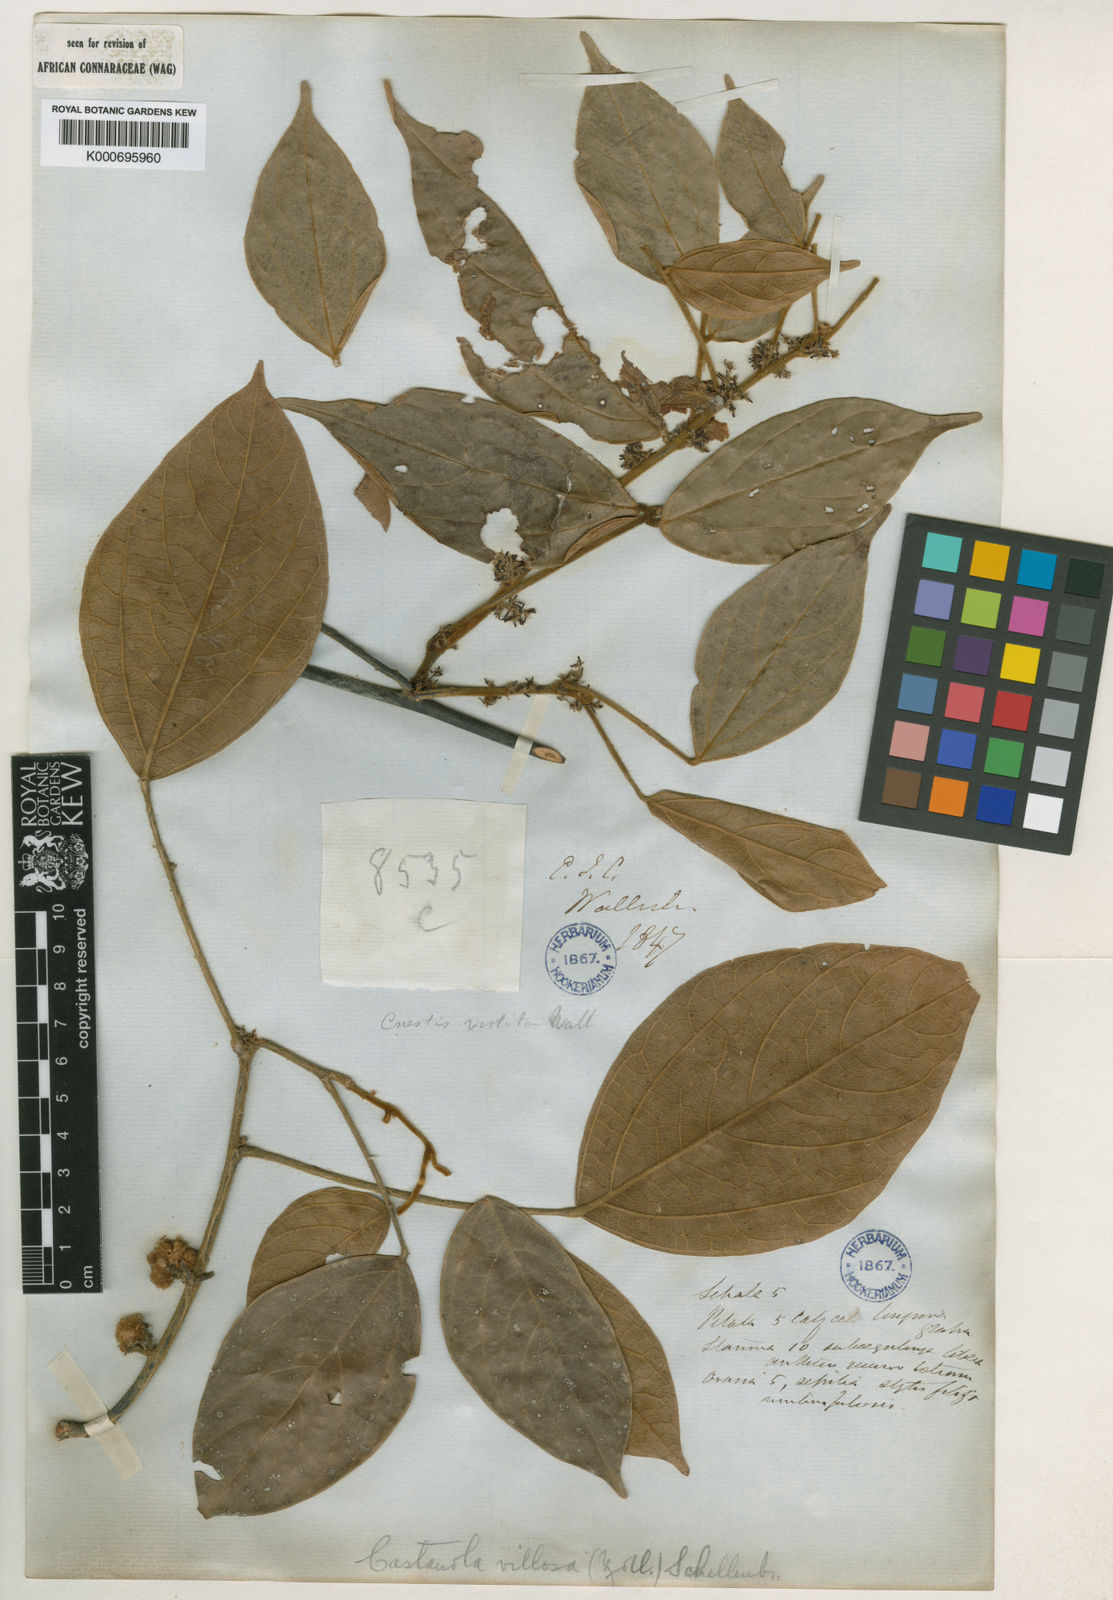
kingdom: Plantae
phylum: Tracheophyta
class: Magnoliopsida
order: Oxalidales
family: Connaraceae
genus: Agelaea
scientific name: Agelaea borneensis
